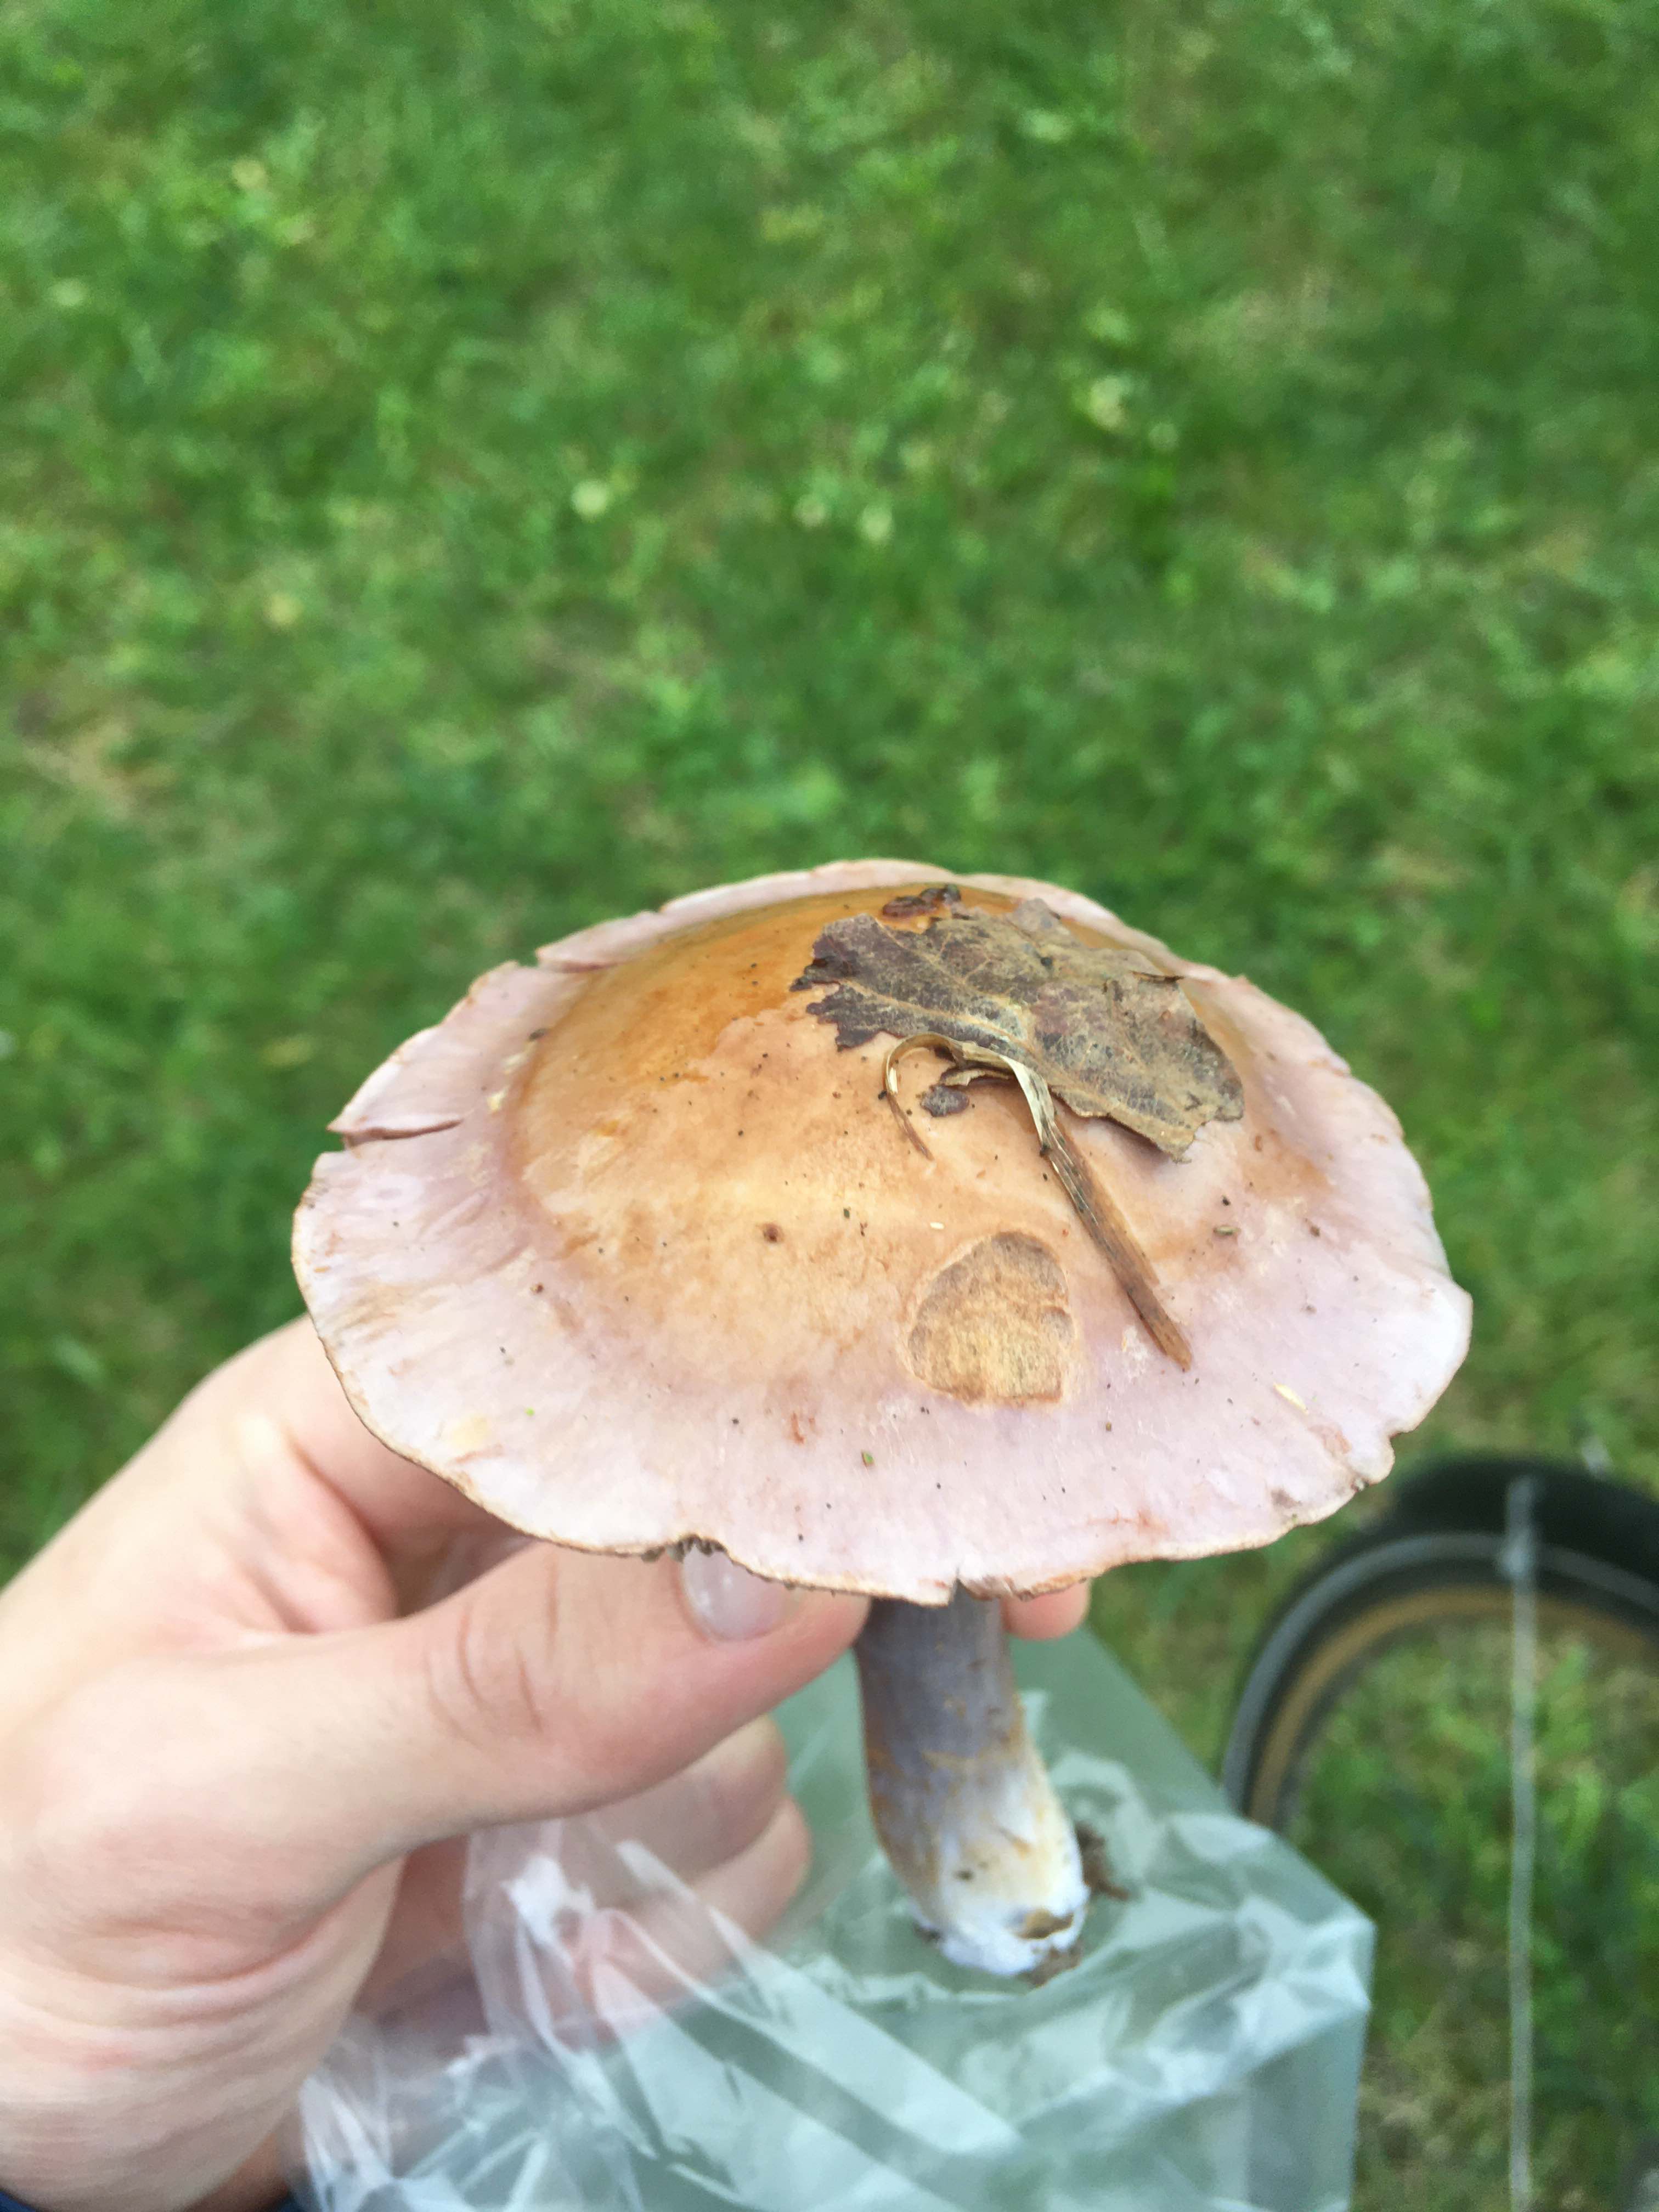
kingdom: Fungi
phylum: Basidiomycota
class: Agaricomycetes
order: Agaricales
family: Cortinariaceae
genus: Cortinarius
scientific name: Cortinarius largus
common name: violetrandet slørhat
